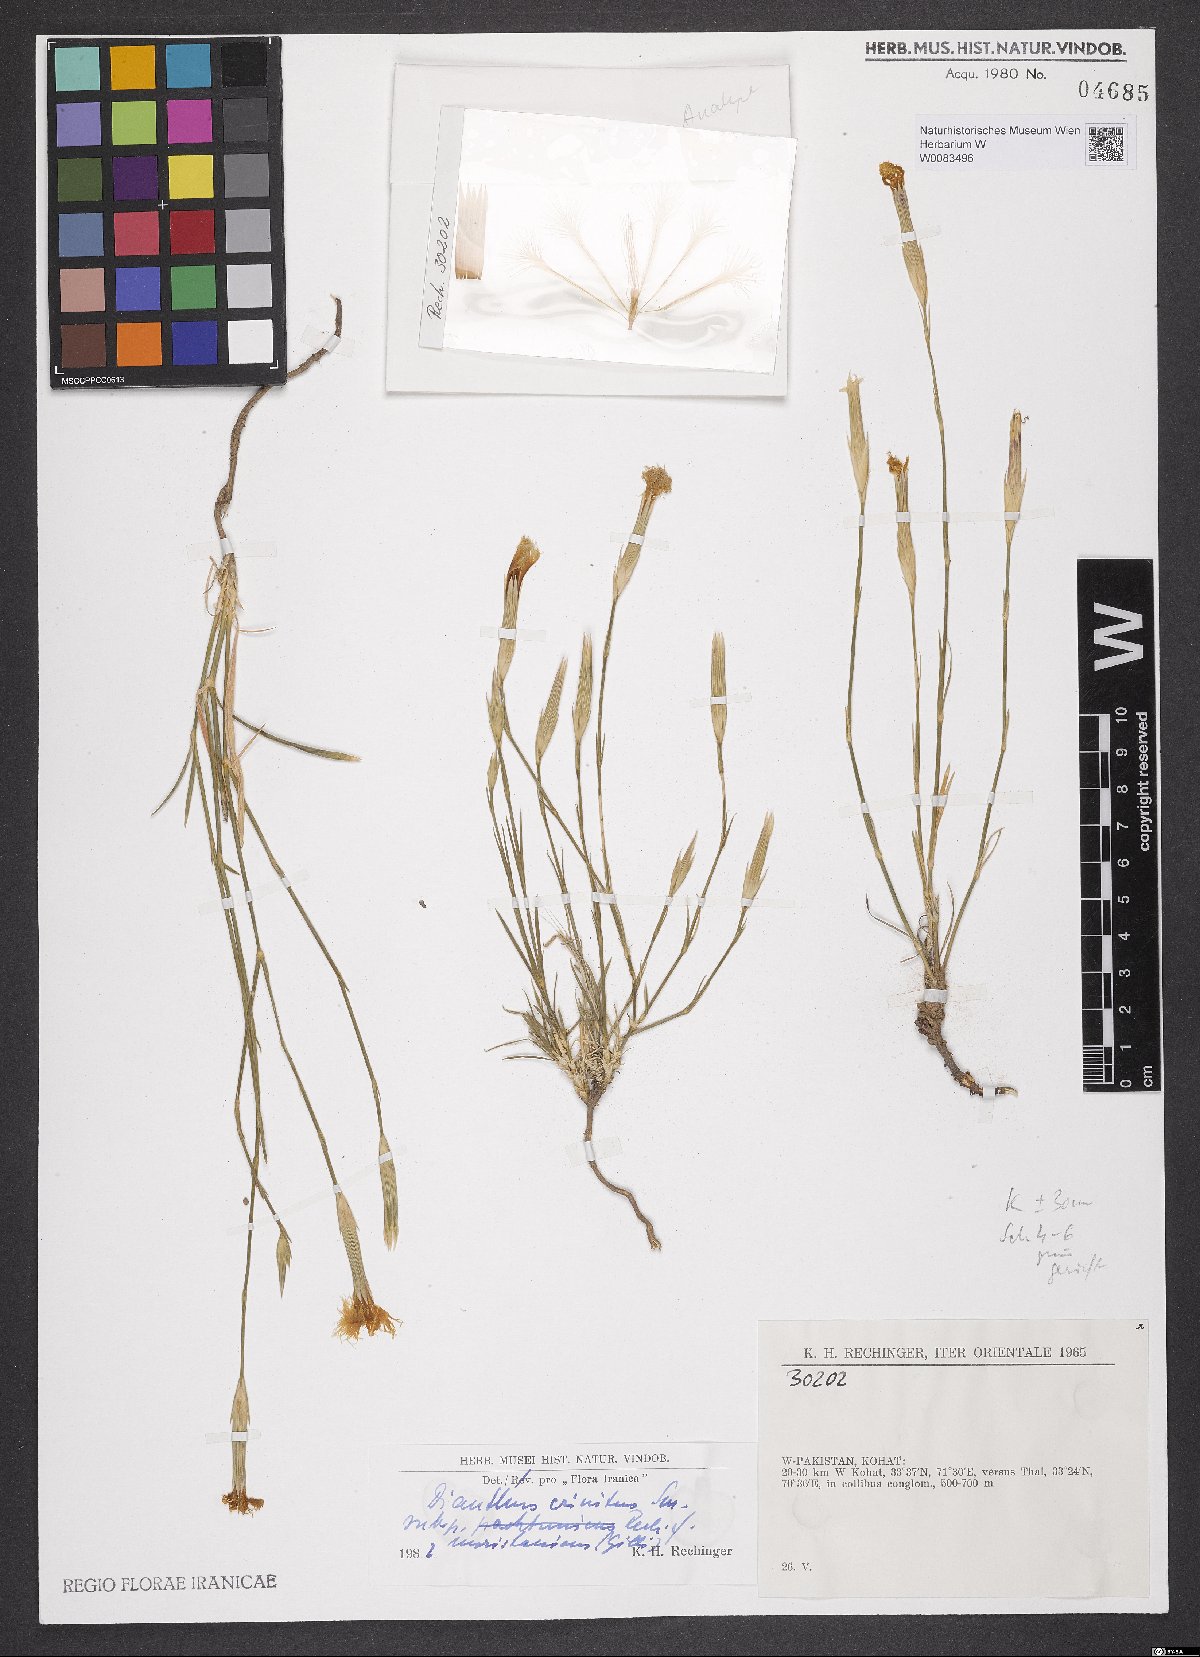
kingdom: Plantae
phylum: Tracheophyta
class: Magnoliopsida
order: Caryophyllales
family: Caryophyllaceae
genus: Dianthus
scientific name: Dianthus crinitus
